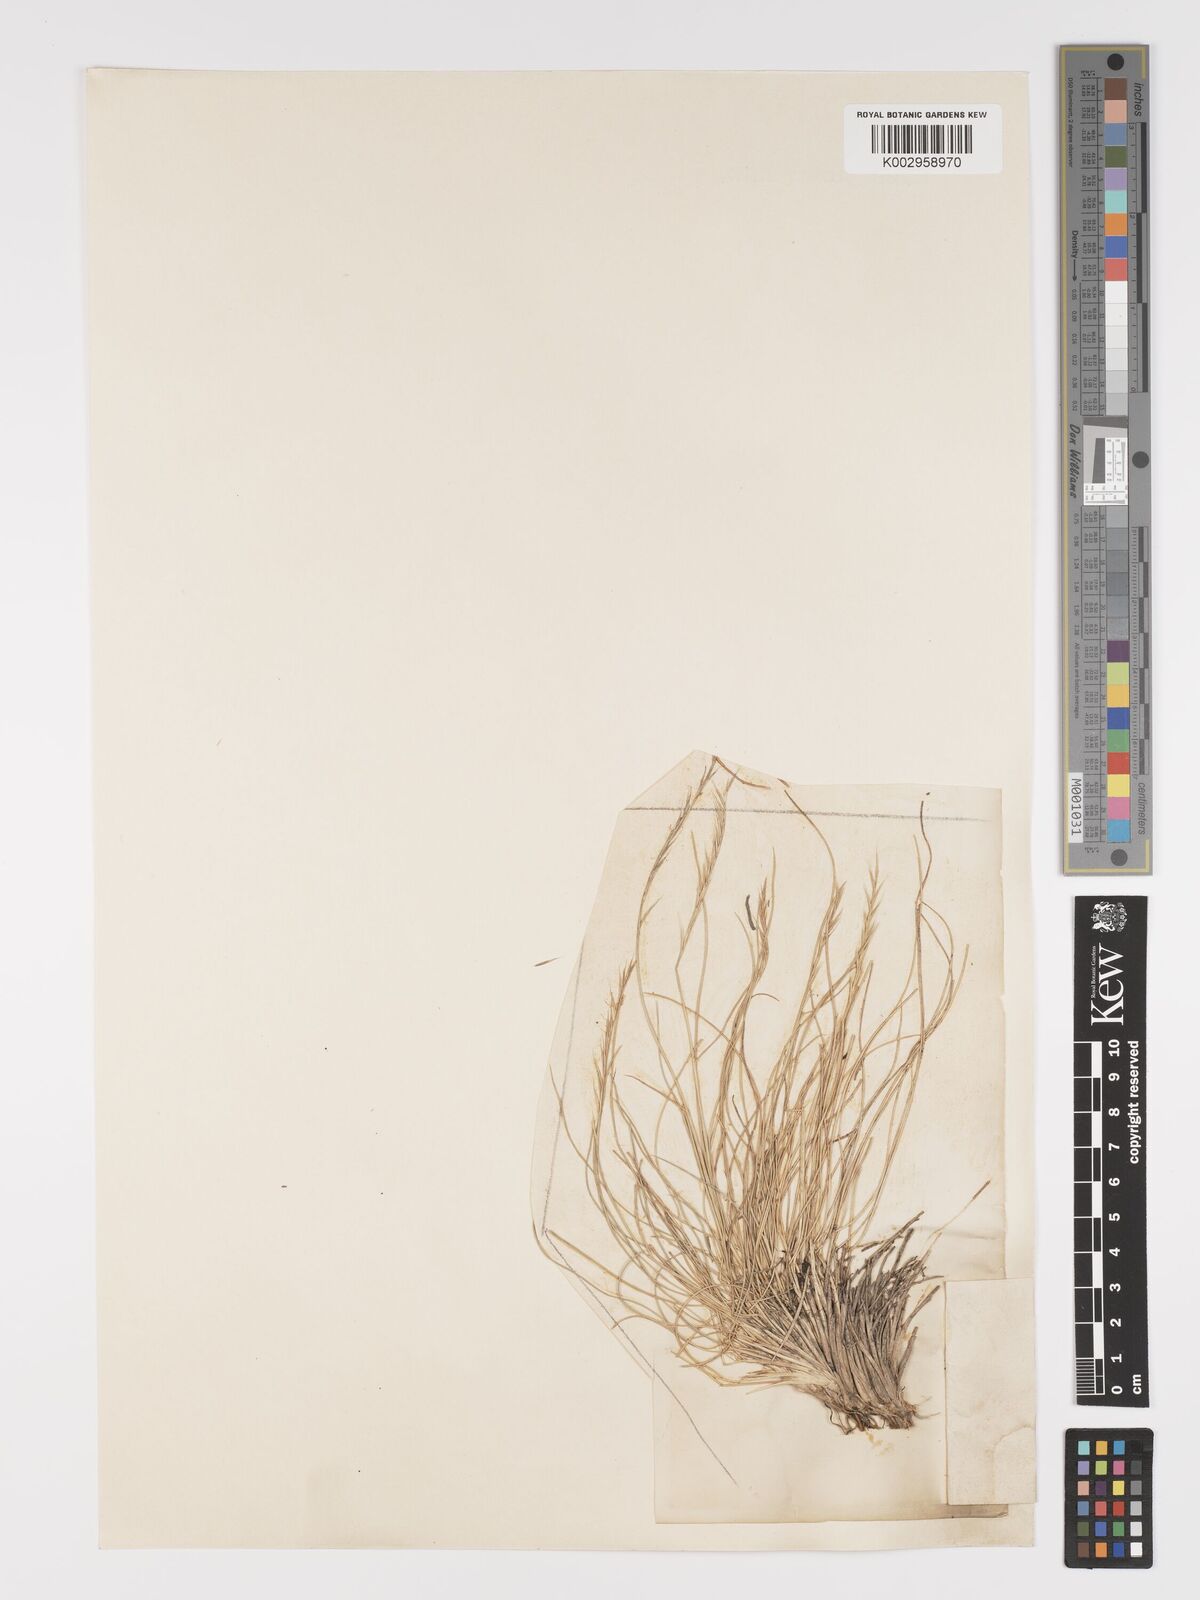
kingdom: Plantae
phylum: Tracheophyta
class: Liliopsida
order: Poales
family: Poaceae
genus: Nardus
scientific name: Nardus stricta
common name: Mat-grass
